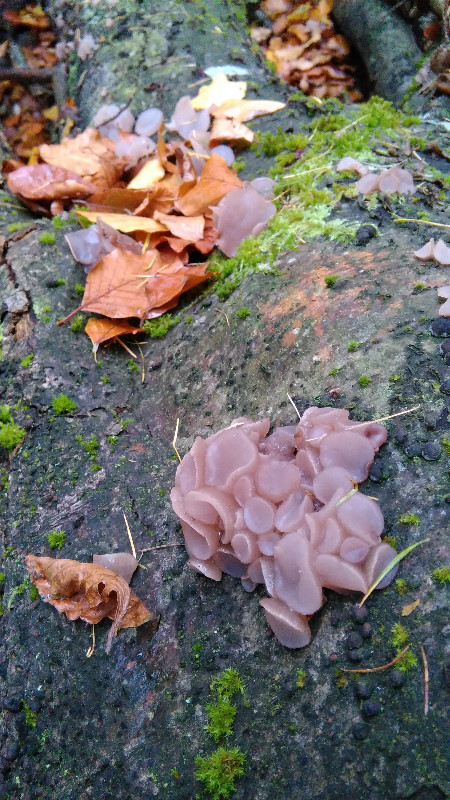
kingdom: Fungi
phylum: Ascomycota
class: Leotiomycetes
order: Helotiales
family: Gelatinodiscaceae
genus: Neobulgaria
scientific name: Neobulgaria pura
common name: bleg bævreskive
